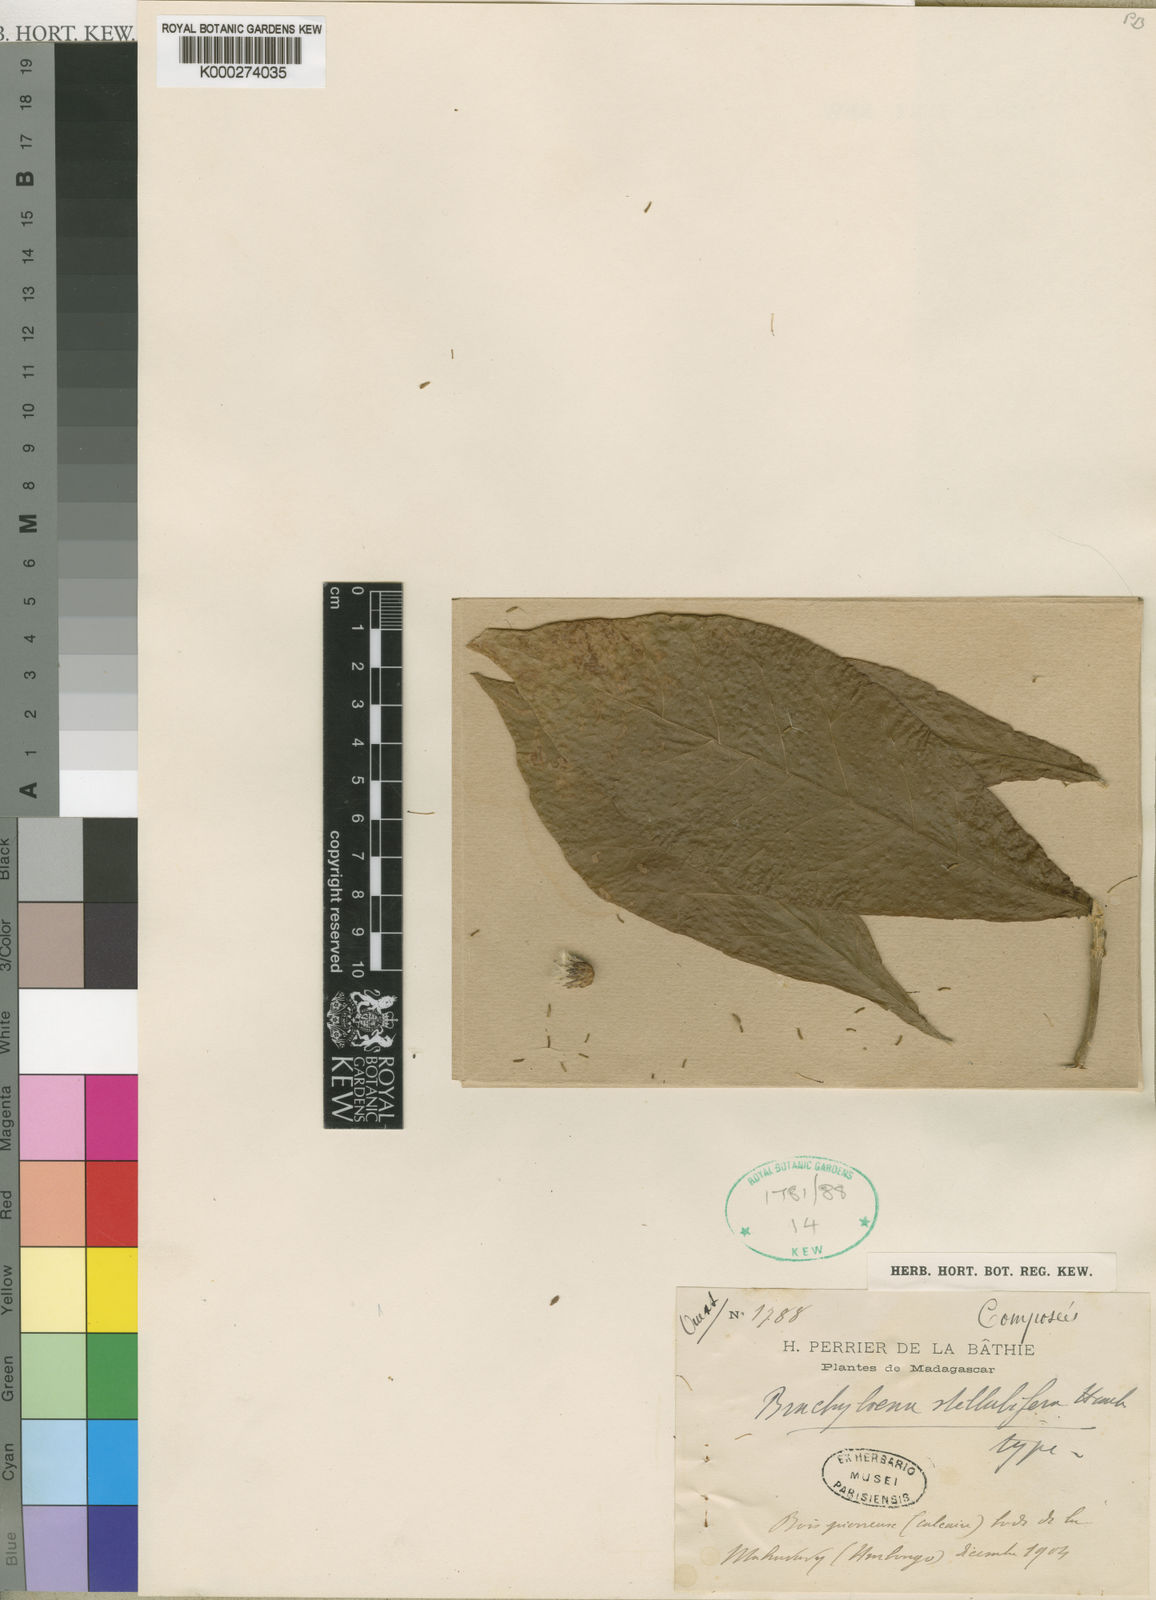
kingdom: Plantae
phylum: Tracheophyta
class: Magnoliopsida
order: Asterales
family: Asteraceae
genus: Brachylaena
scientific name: Brachylaena stellulifera
